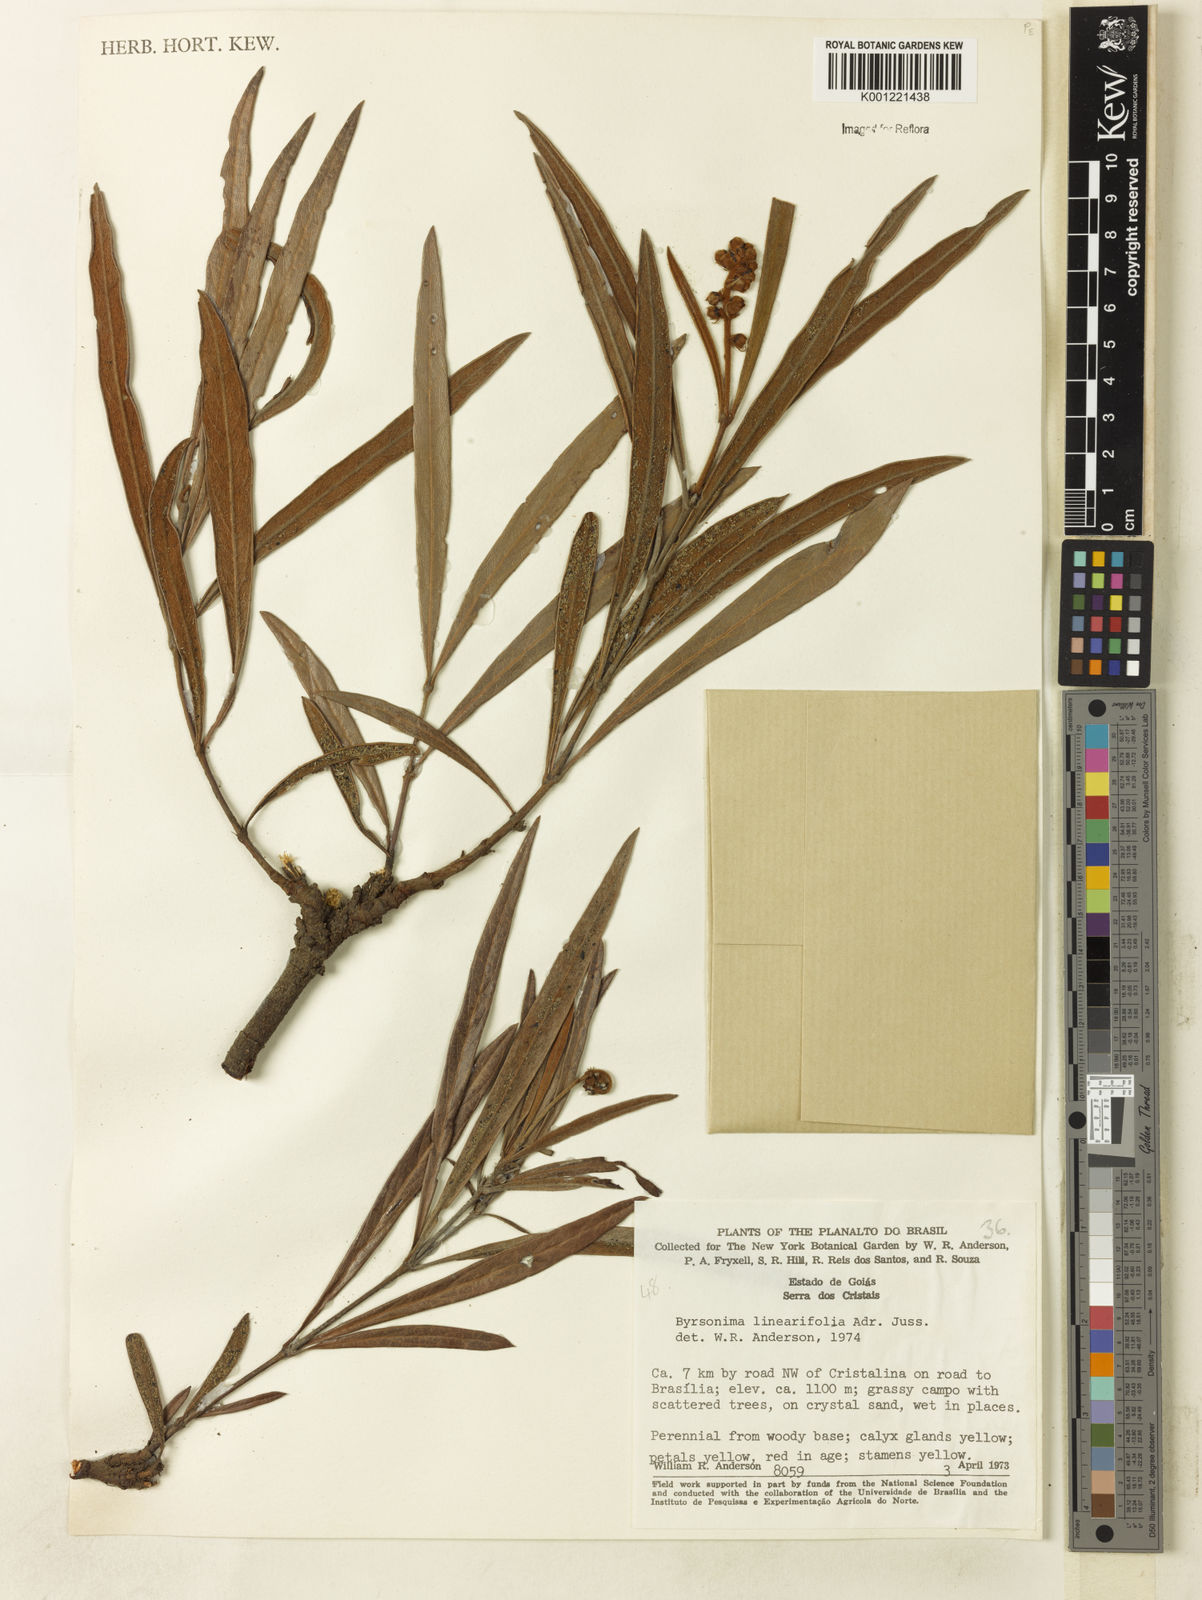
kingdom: Plantae
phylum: Tracheophyta
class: Magnoliopsida
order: Malpighiales
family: Malpighiaceae
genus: Byrsonima
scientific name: Byrsonima linearifolia
